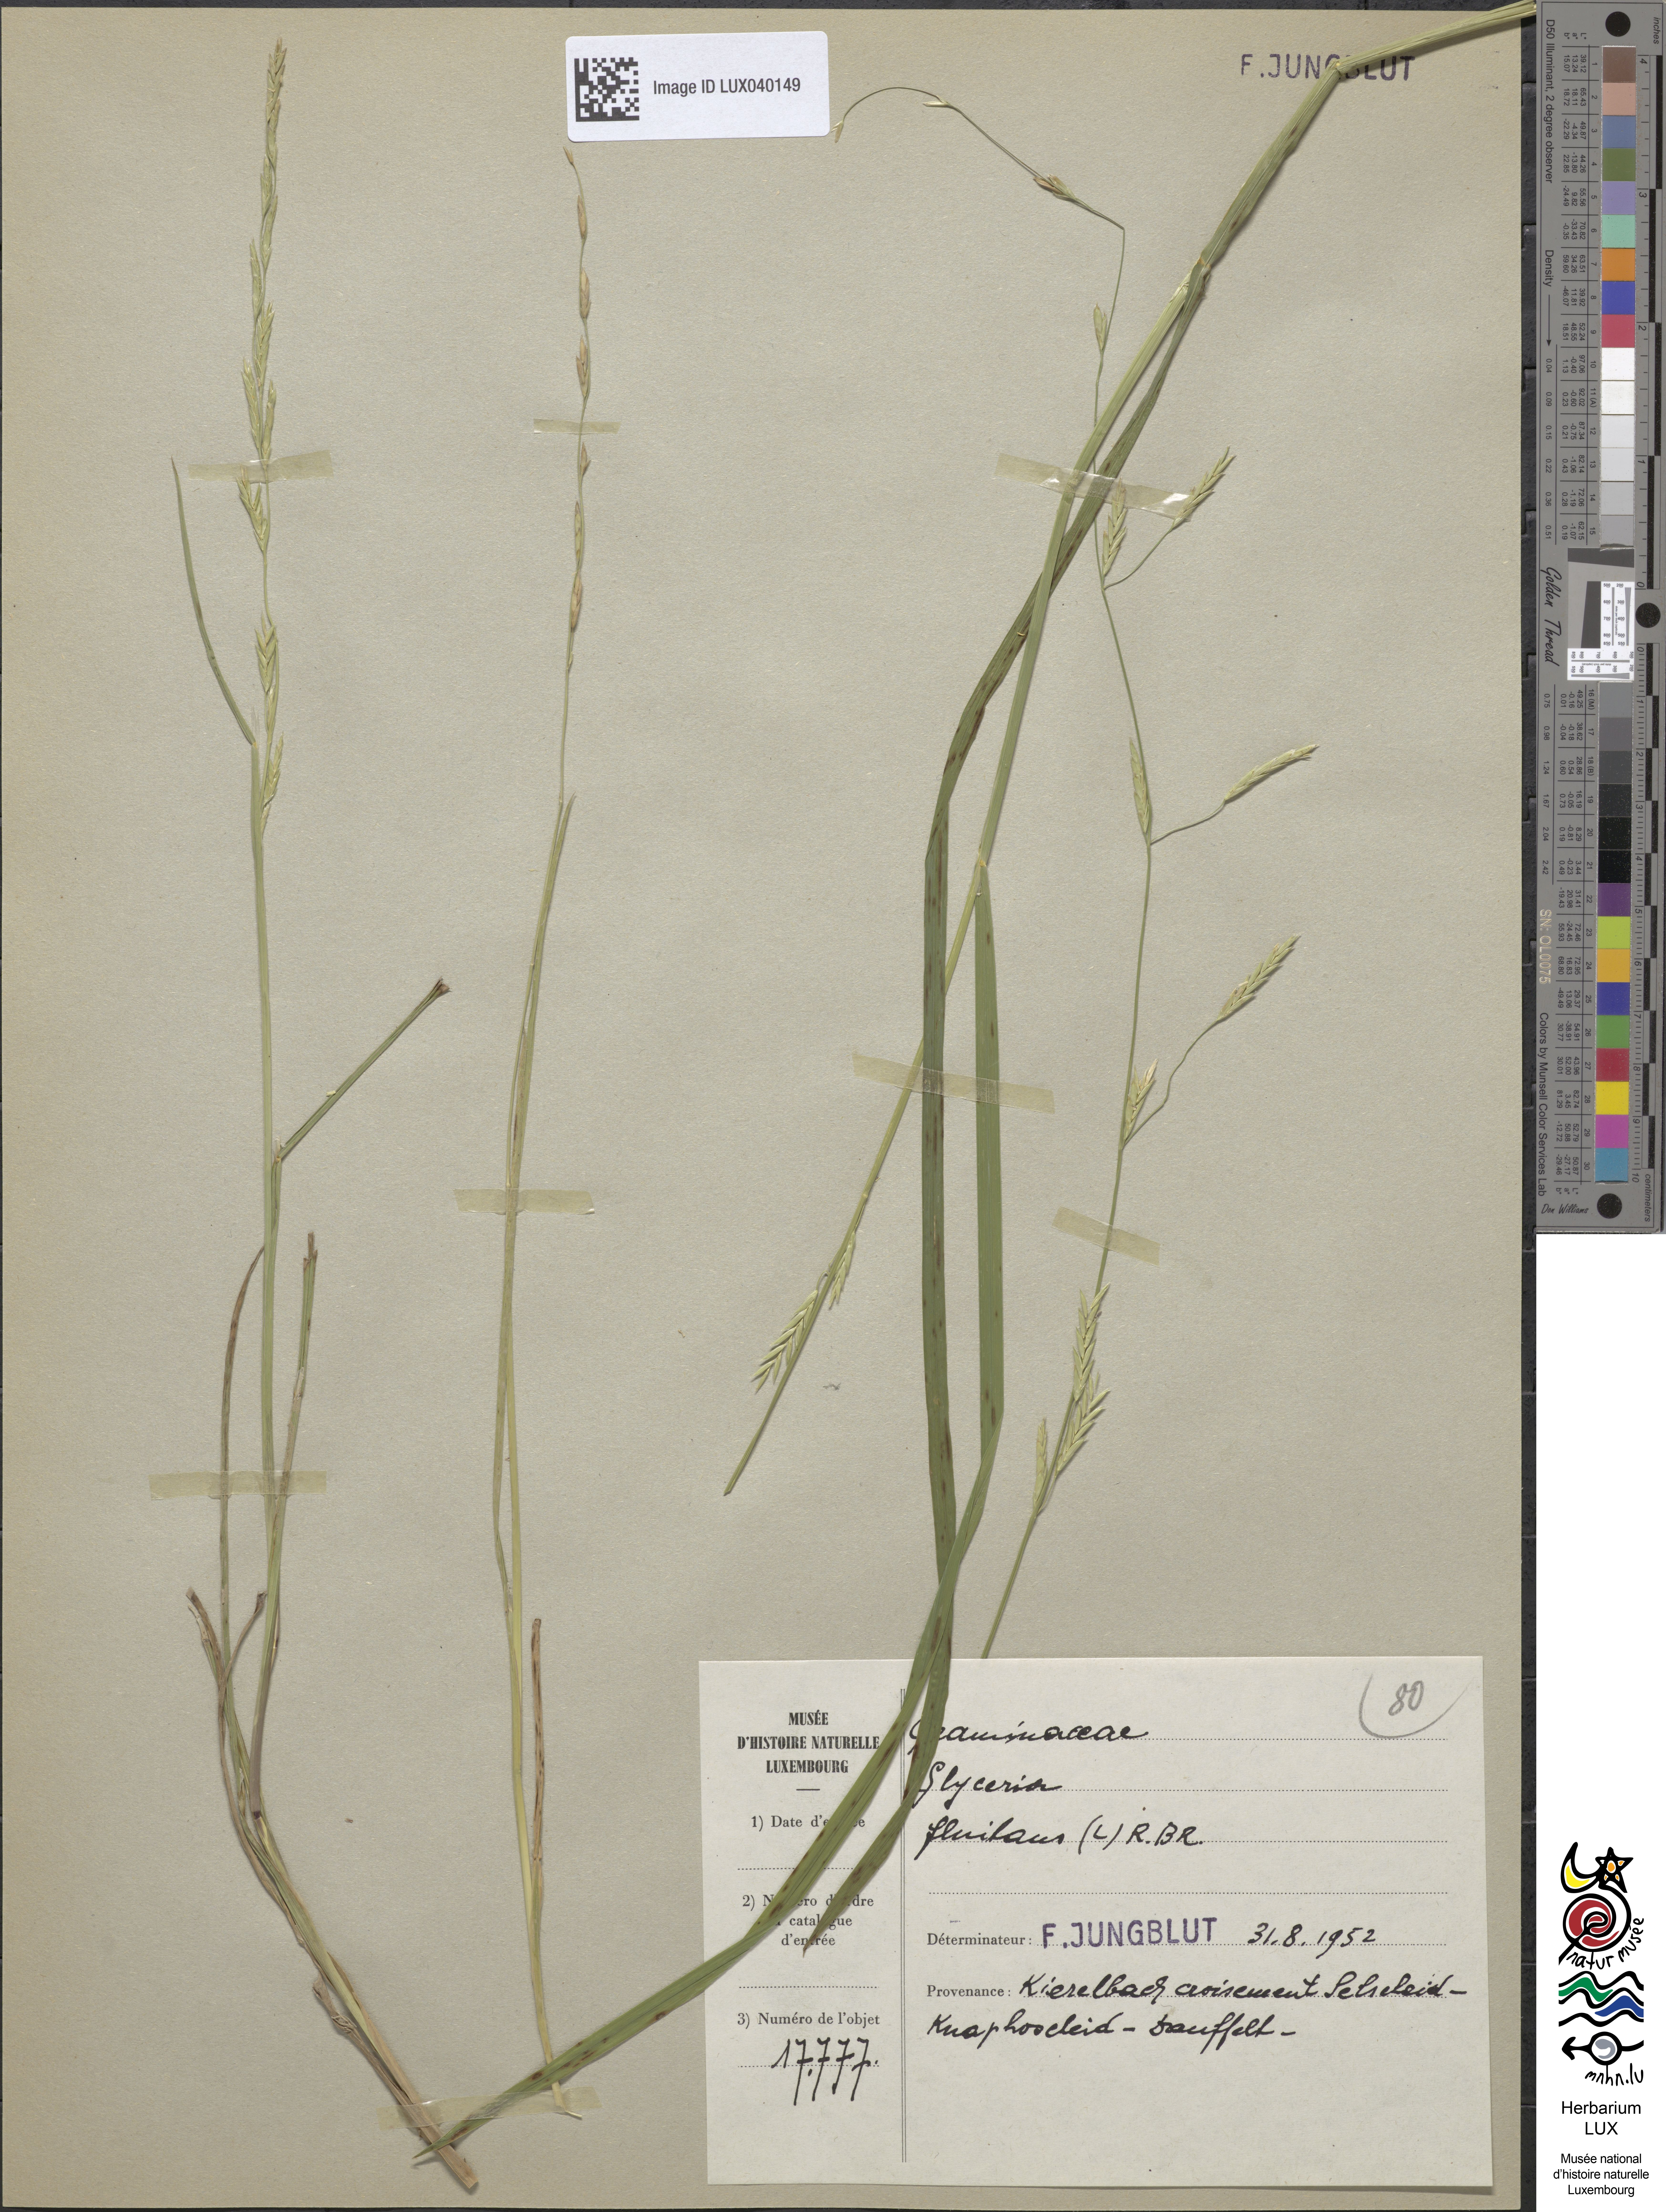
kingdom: Plantae
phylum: Tracheophyta
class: Liliopsida
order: Poales
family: Poaceae
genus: Glyceria
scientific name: Glyceria fluitans
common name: Floating sweet-grass
